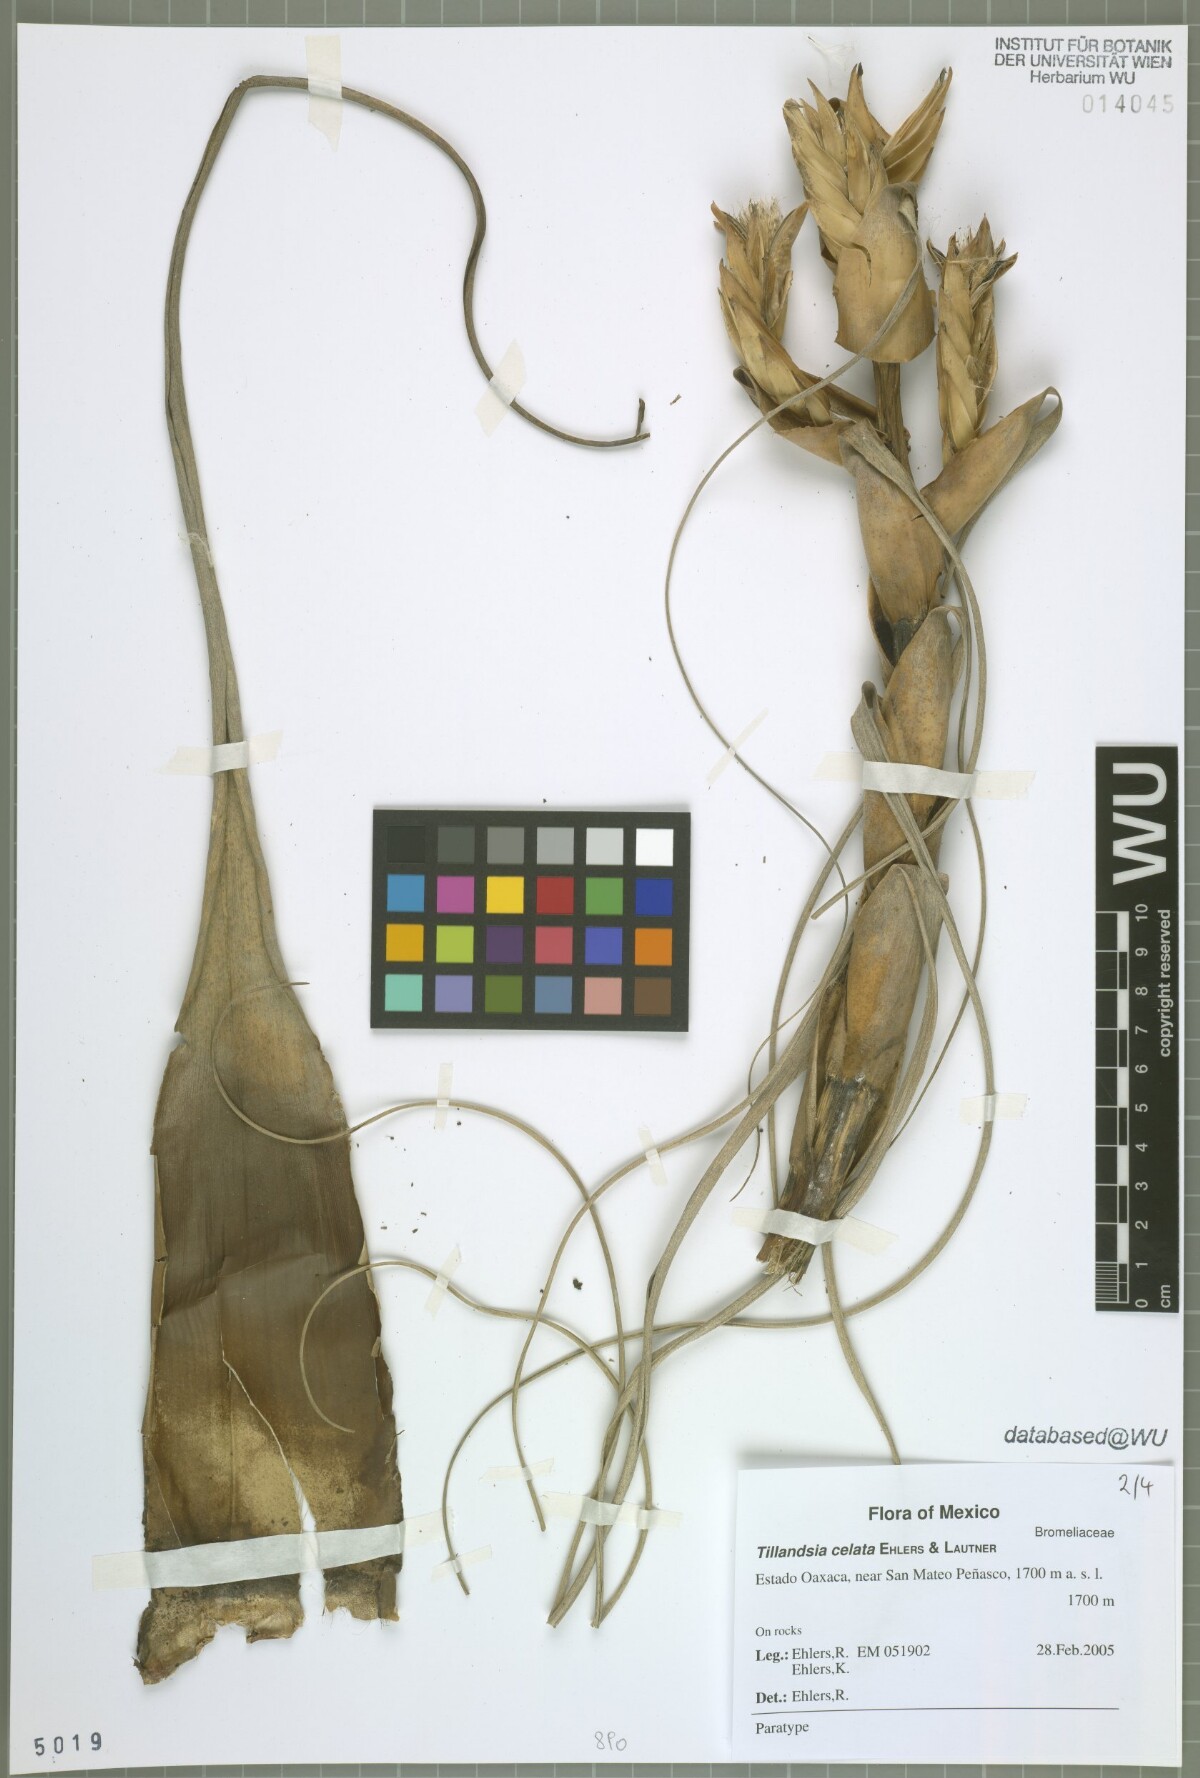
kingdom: Plantae
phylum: Tracheophyta
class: Liliopsida
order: Poales
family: Bromeliaceae
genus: Tillandsia
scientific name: Tillandsia celata
